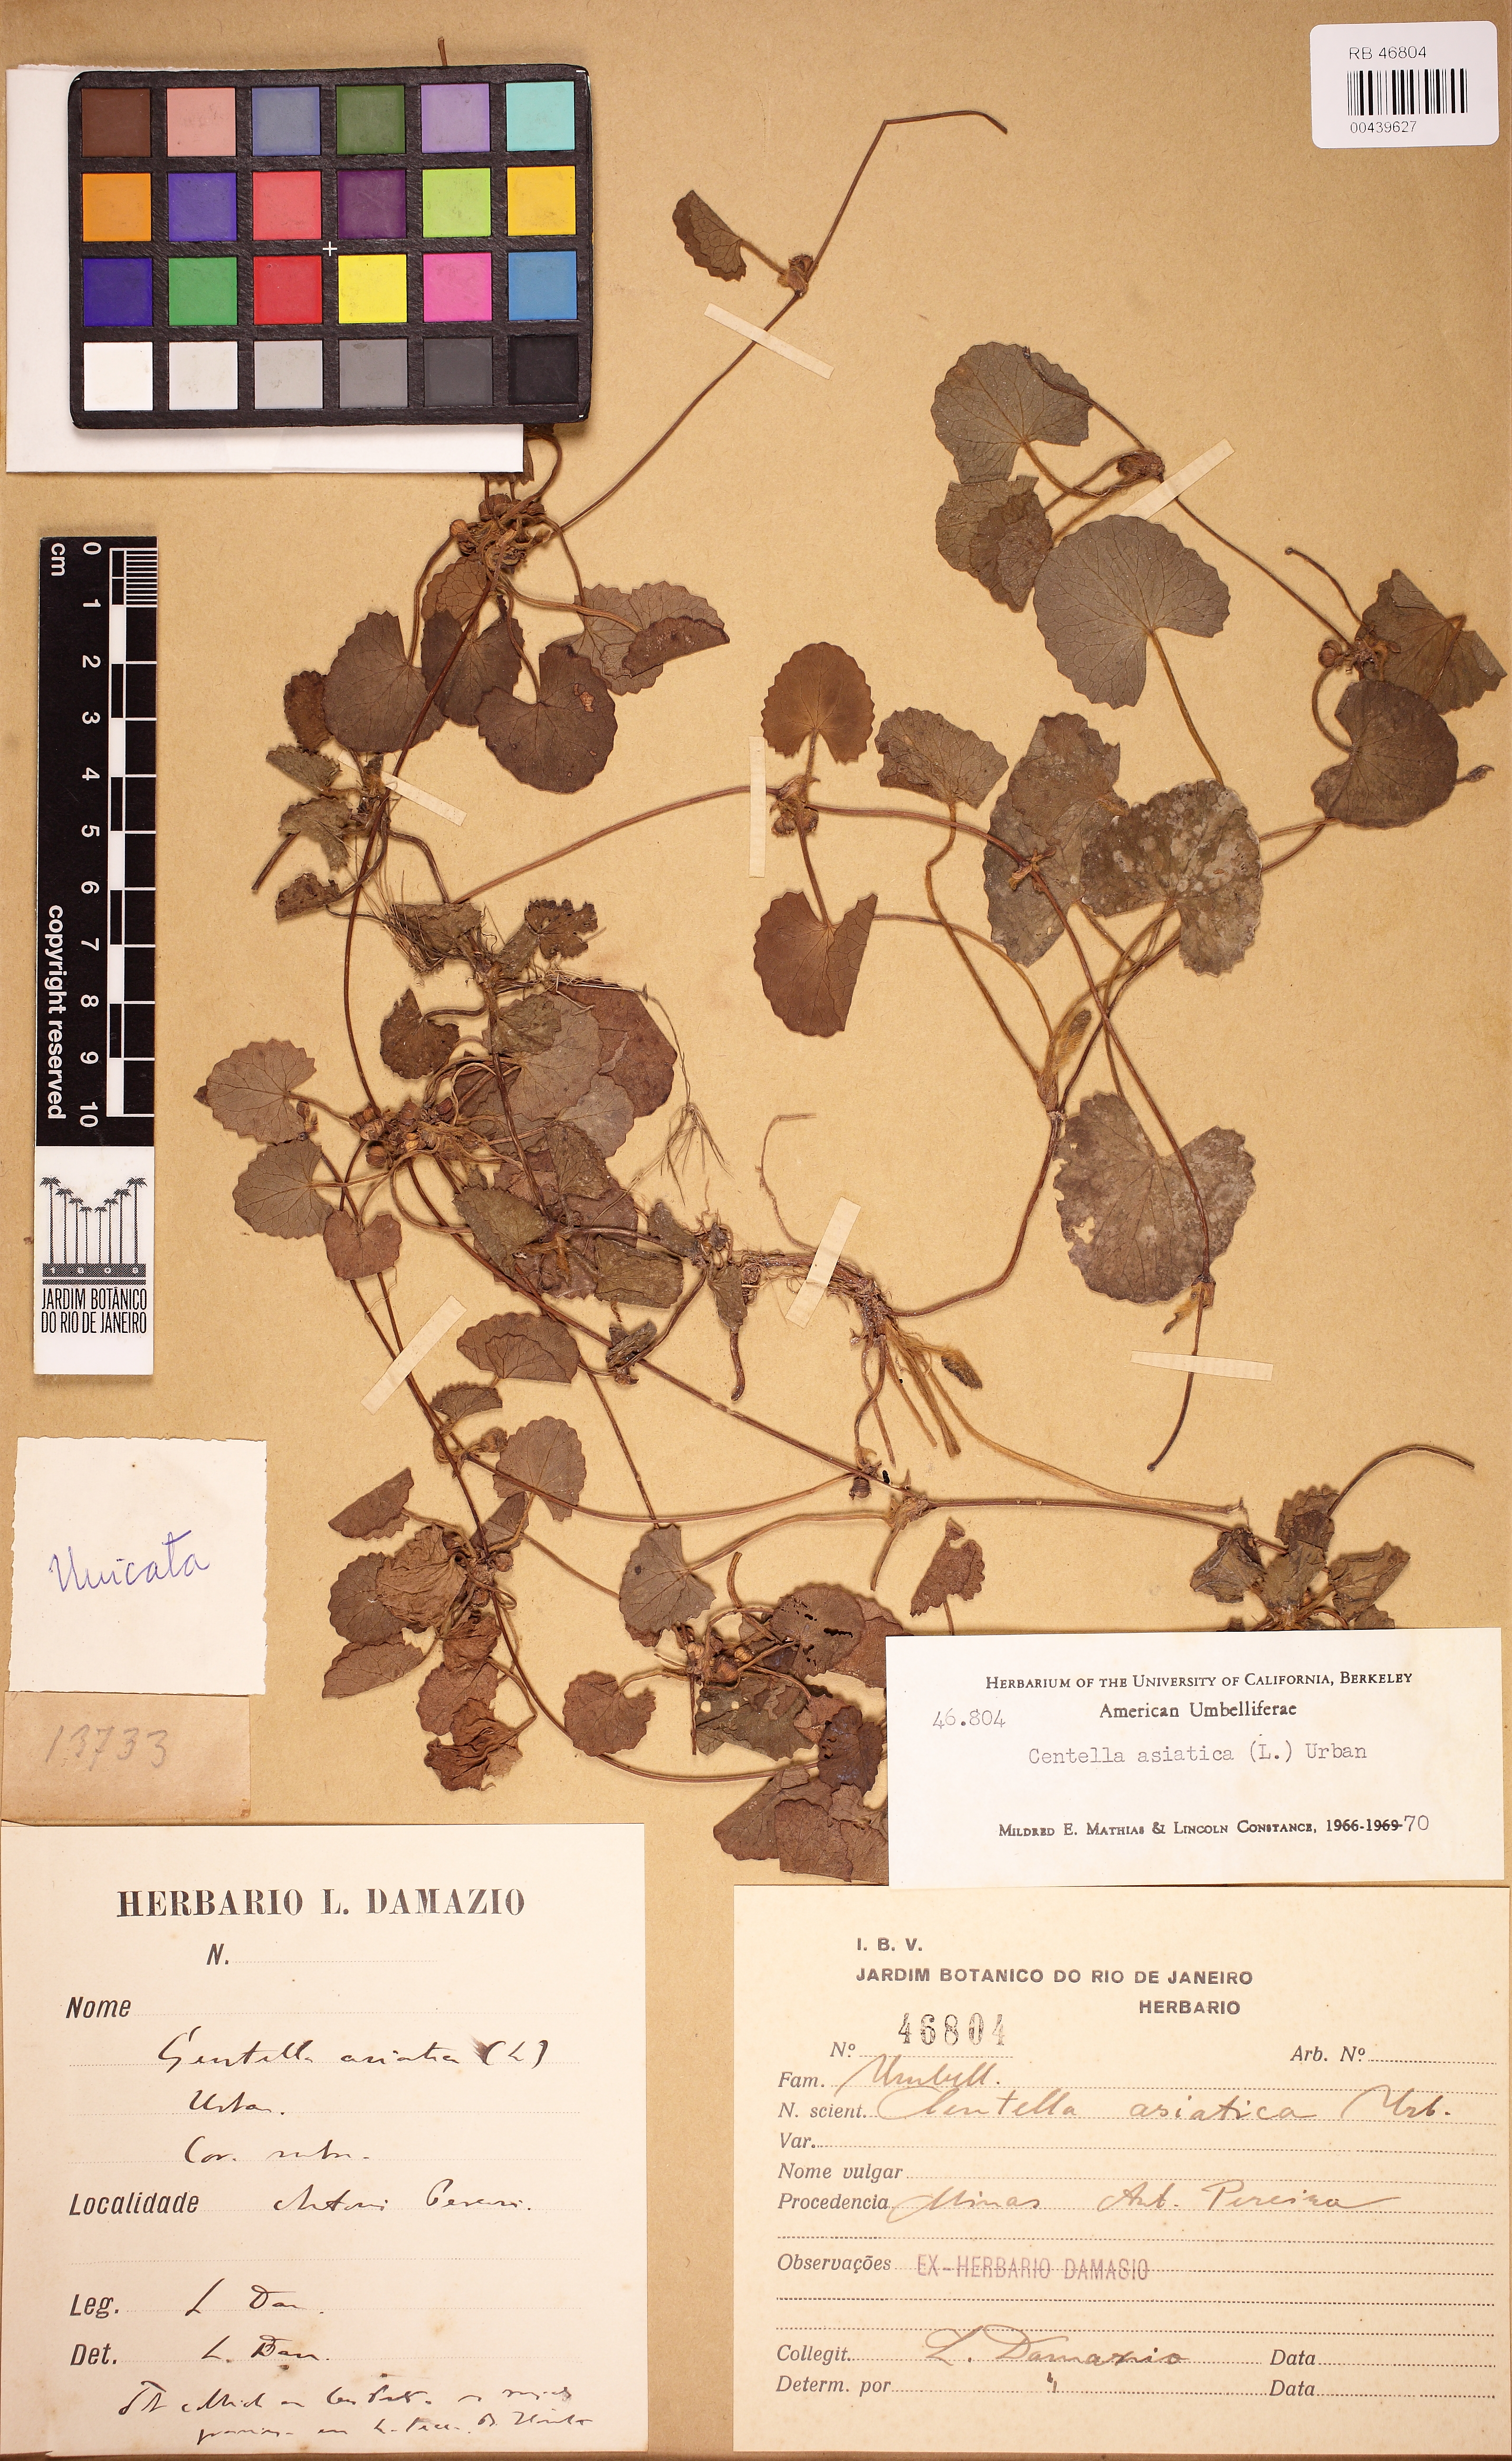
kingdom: Plantae
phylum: Tracheophyta
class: Magnoliopsida
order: Apiales
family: Apiaceae
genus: Centella
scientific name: Centella asiatica
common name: Spadeleaf
